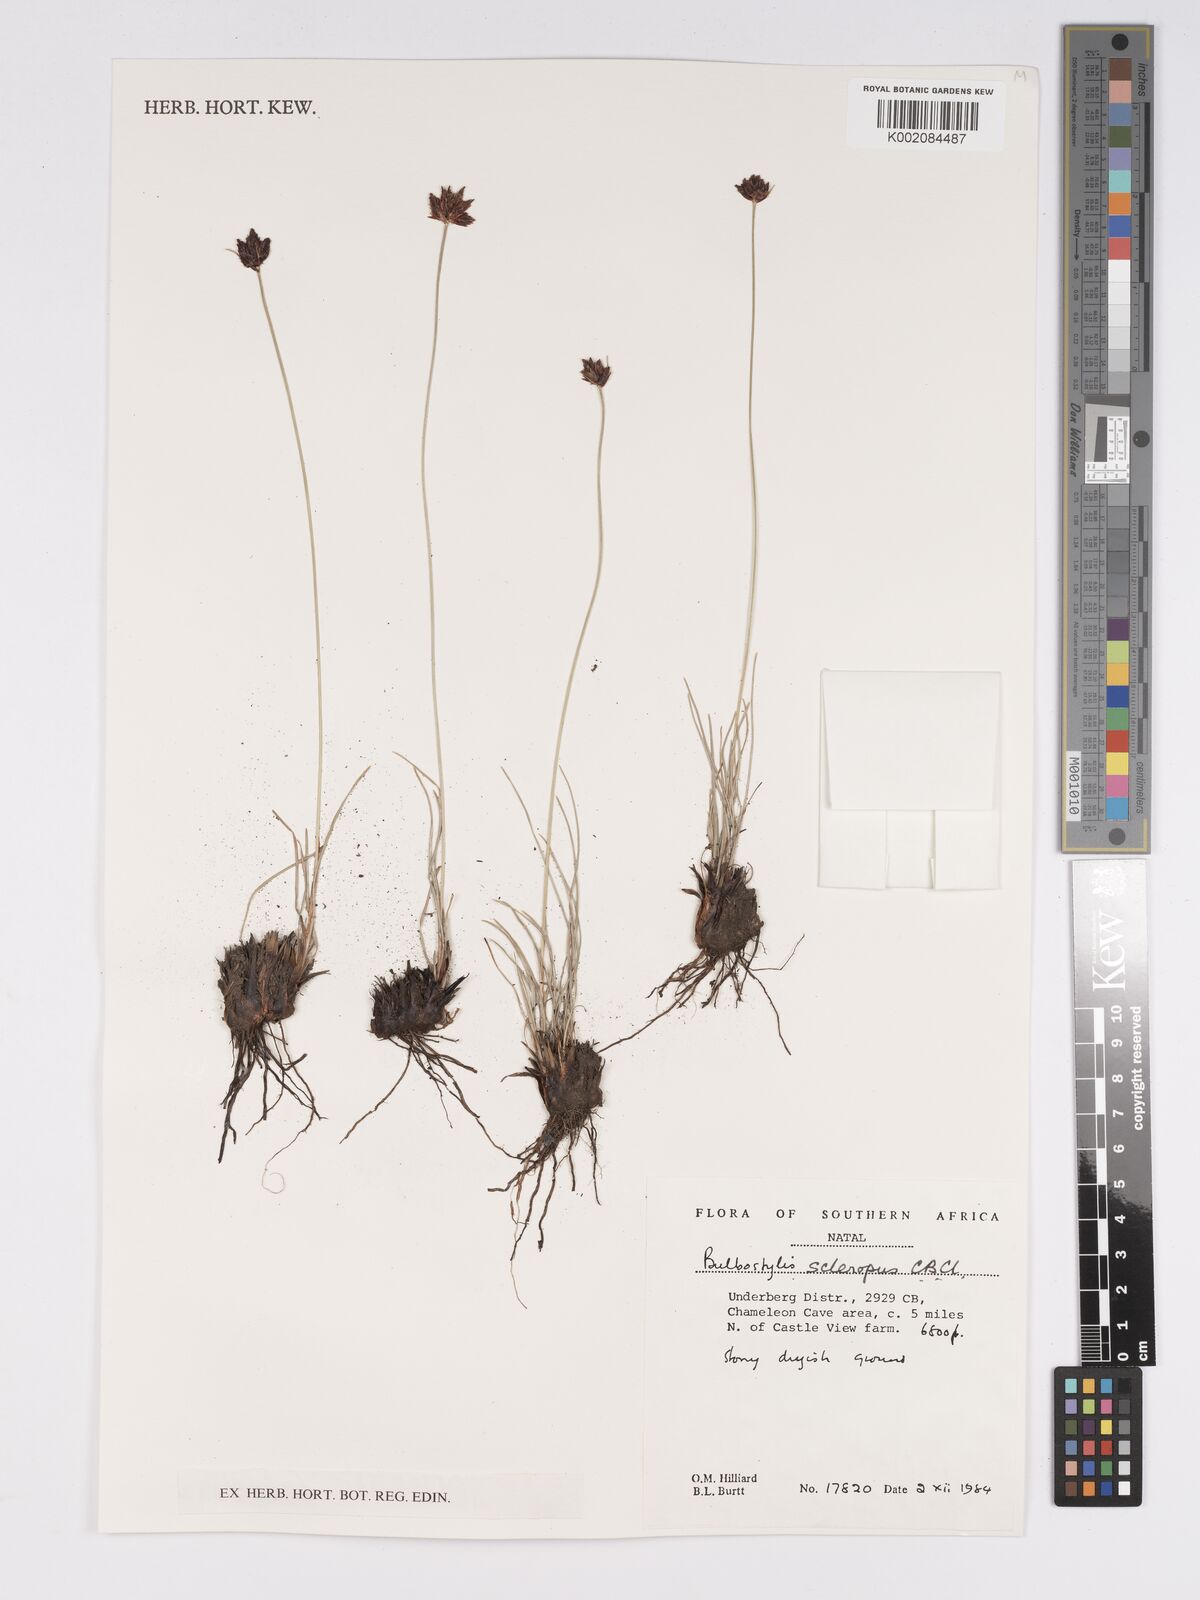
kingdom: Plantae
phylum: Tracheophyta
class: Liliopsida
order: Poales
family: Cyperaceae
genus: Bulbostylis
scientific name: Bulbostylis schoenoides
